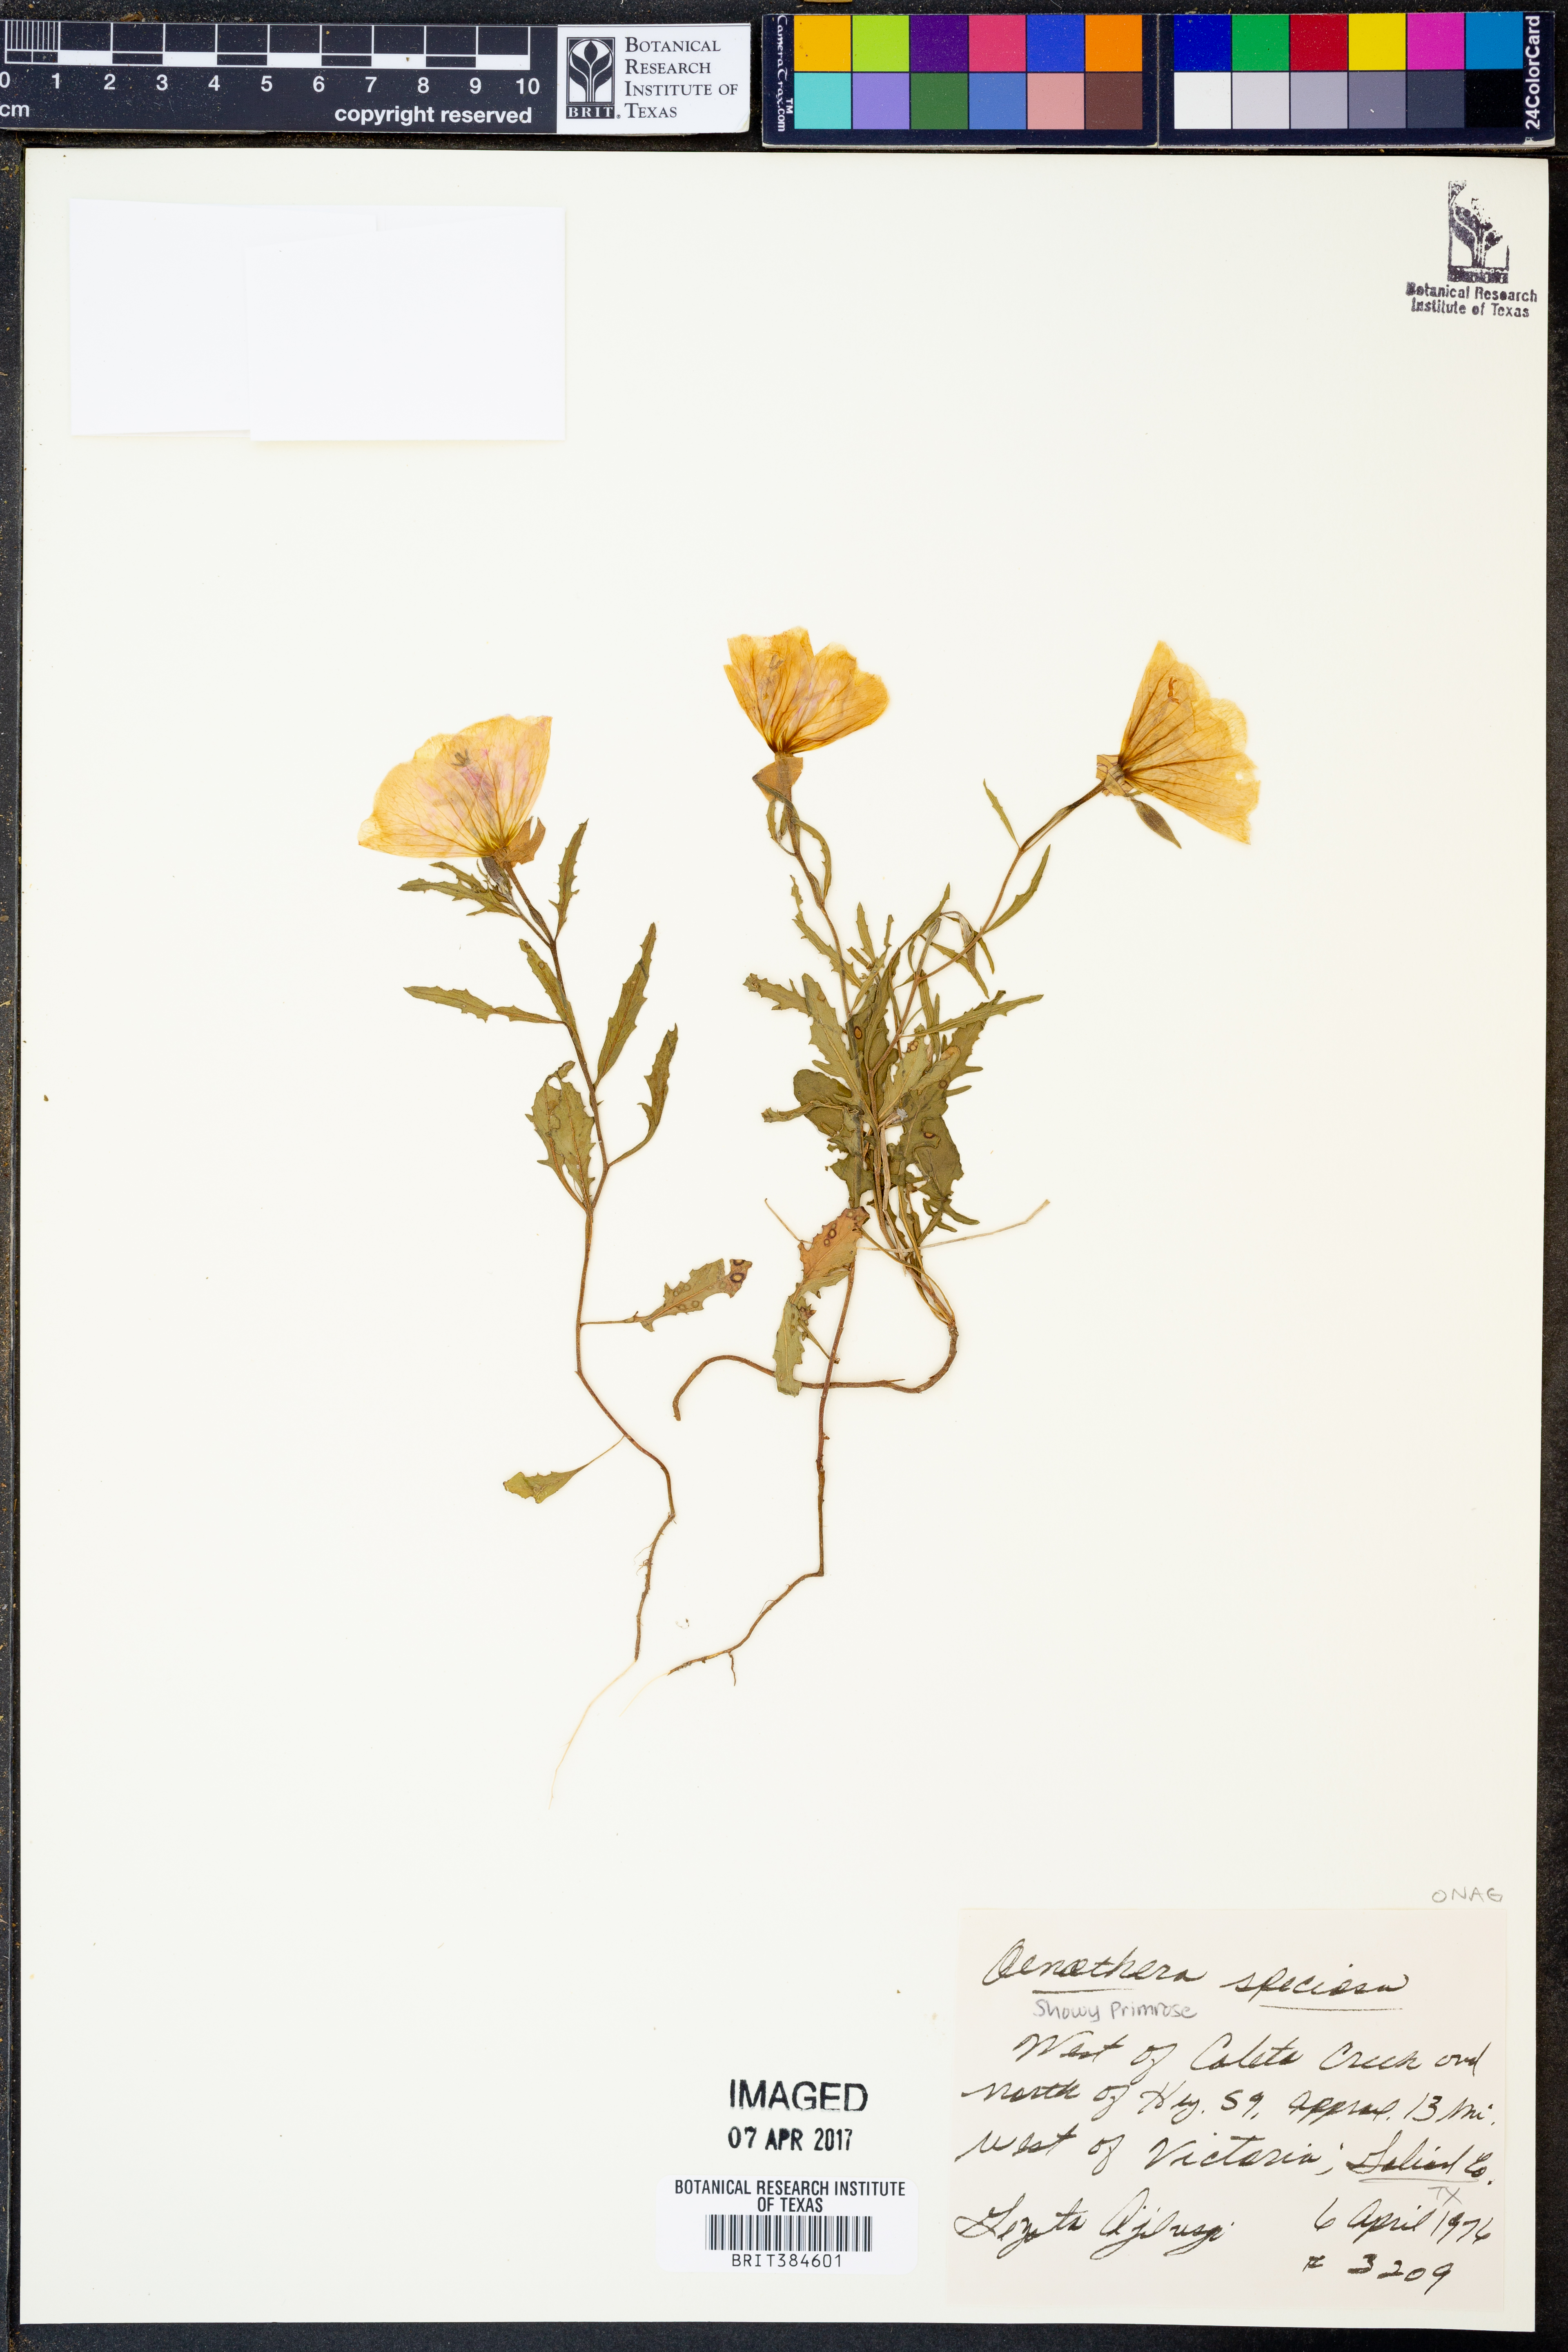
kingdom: Plantae
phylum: Tracheophyta
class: Magnoliopsida
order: Myrtales
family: Onagraceae
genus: Oenothera
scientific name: Oenothera speciosa
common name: White evening-primrose
